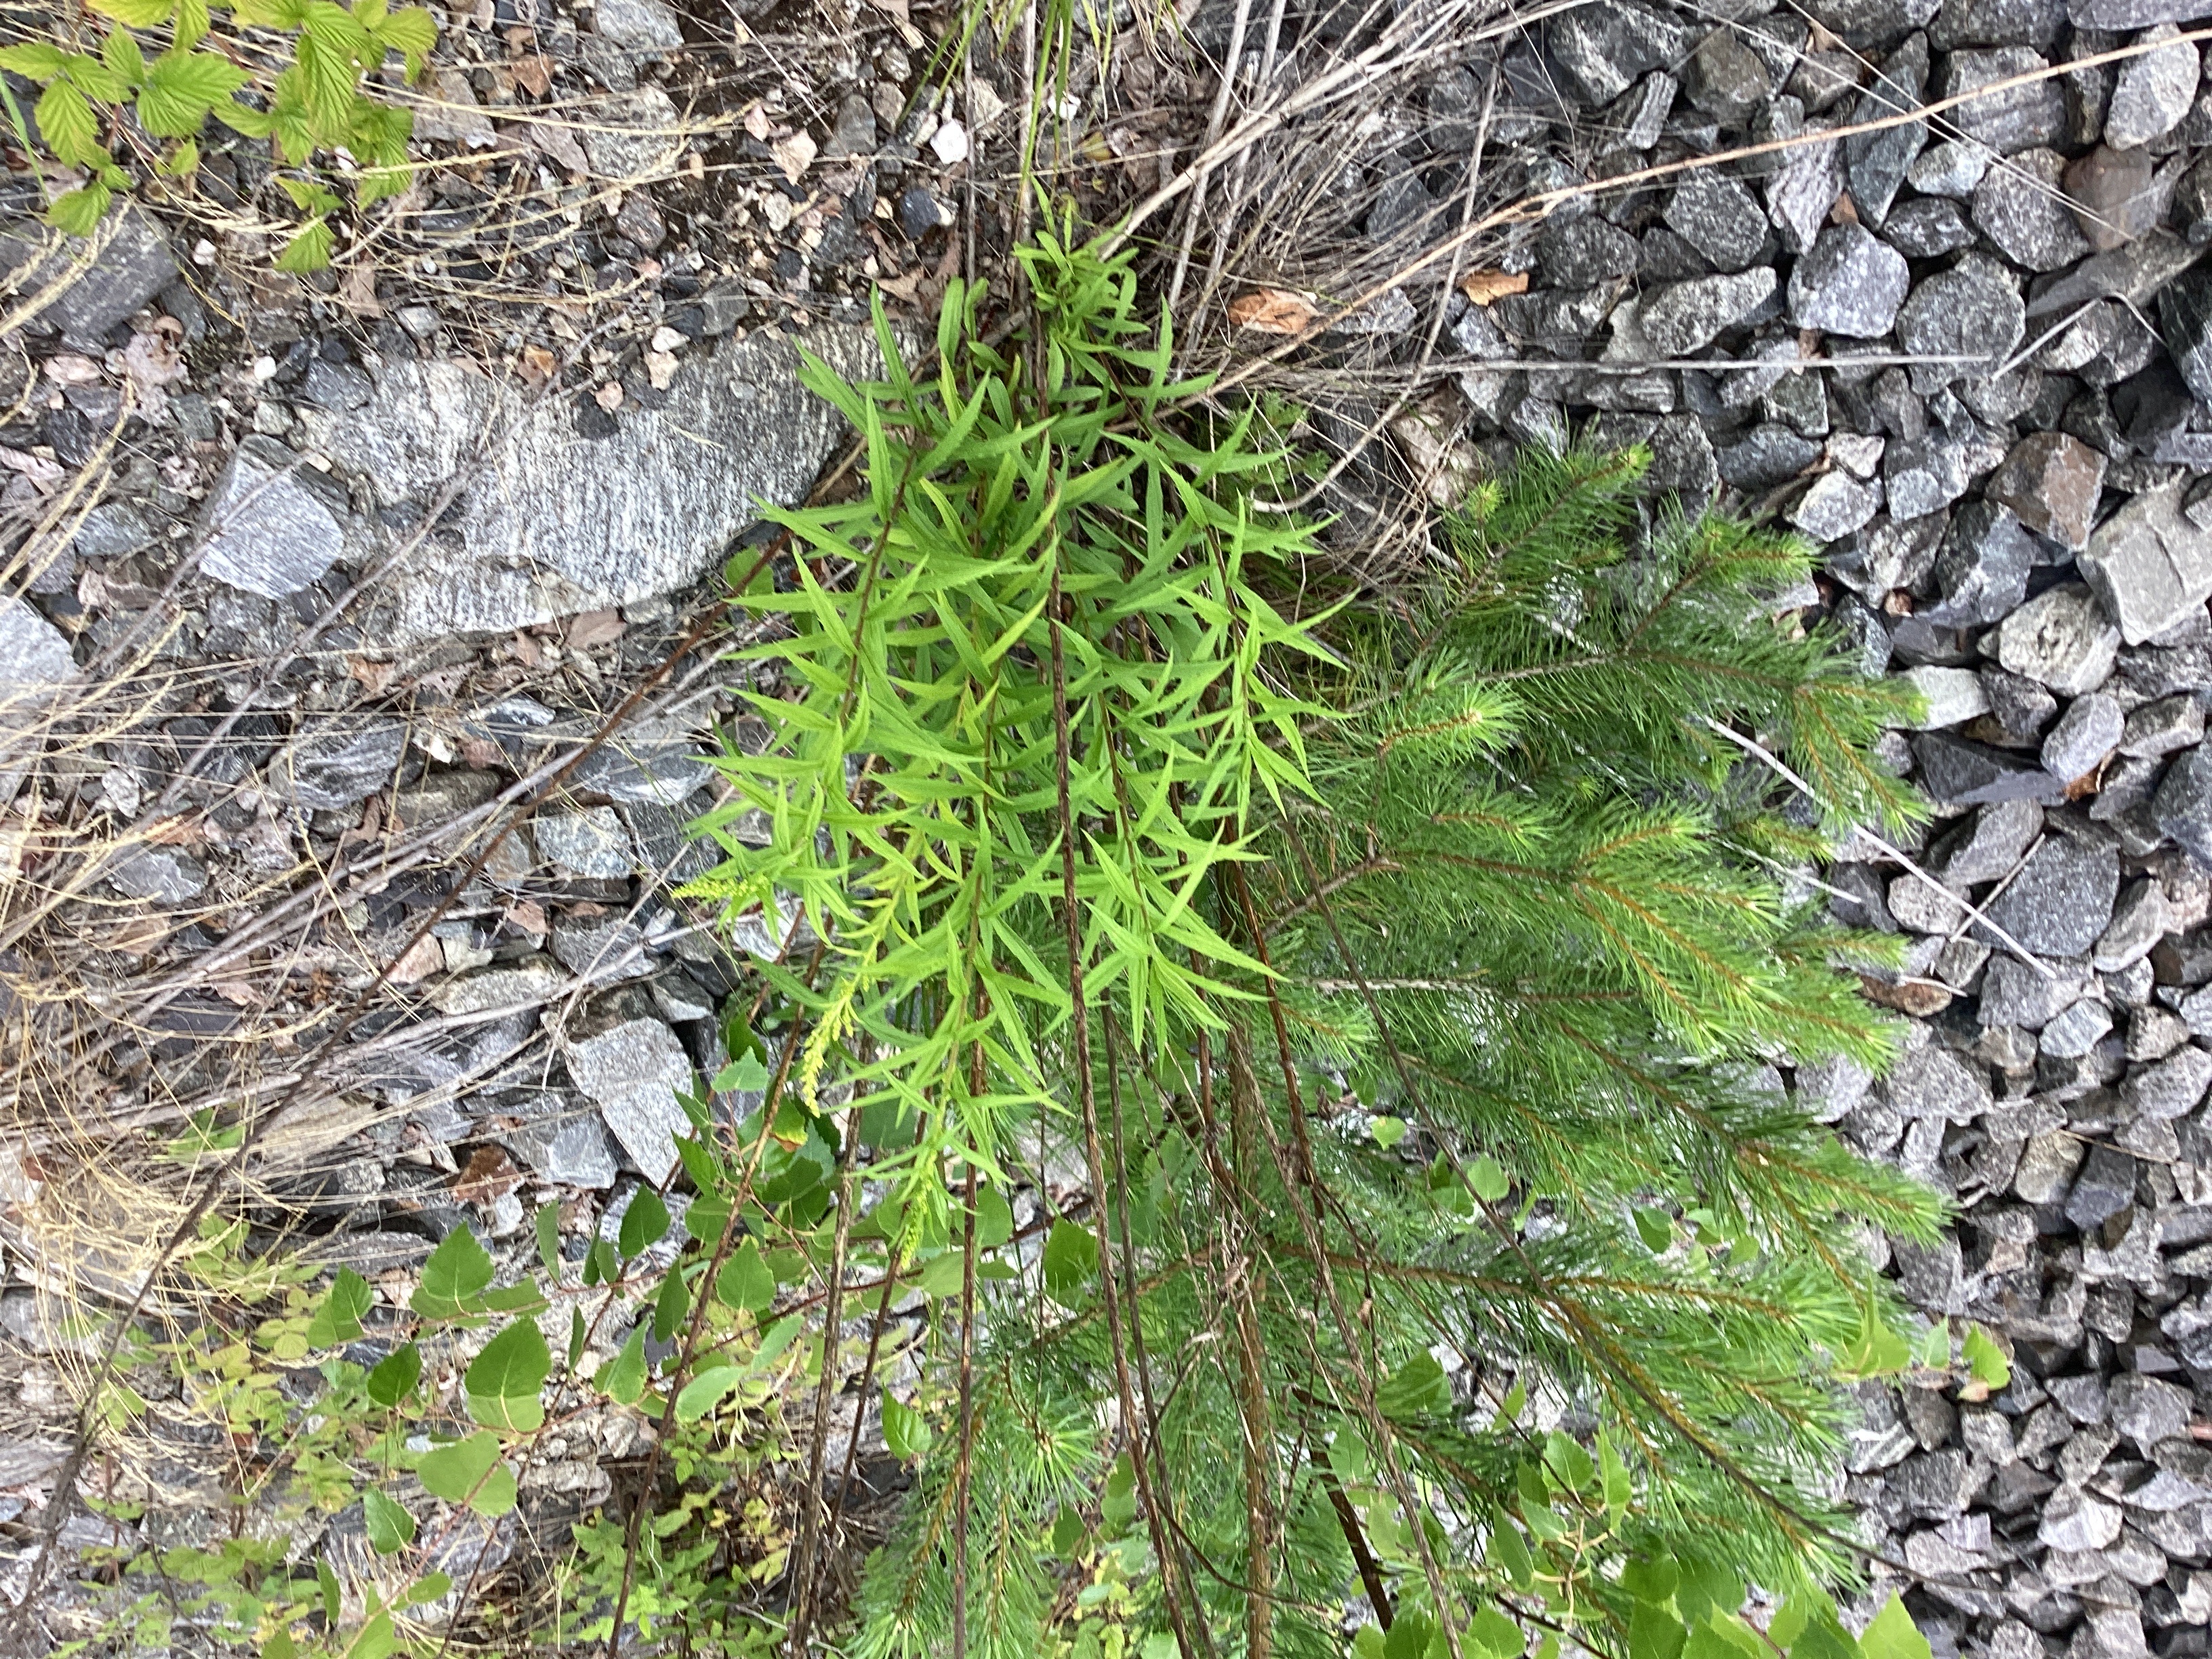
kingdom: Plantae
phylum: Tracheophyta
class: Magnoliopsida
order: Asterales
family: Asteraceae
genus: Solidago
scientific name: Solidago canadensis
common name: kanadagullris
